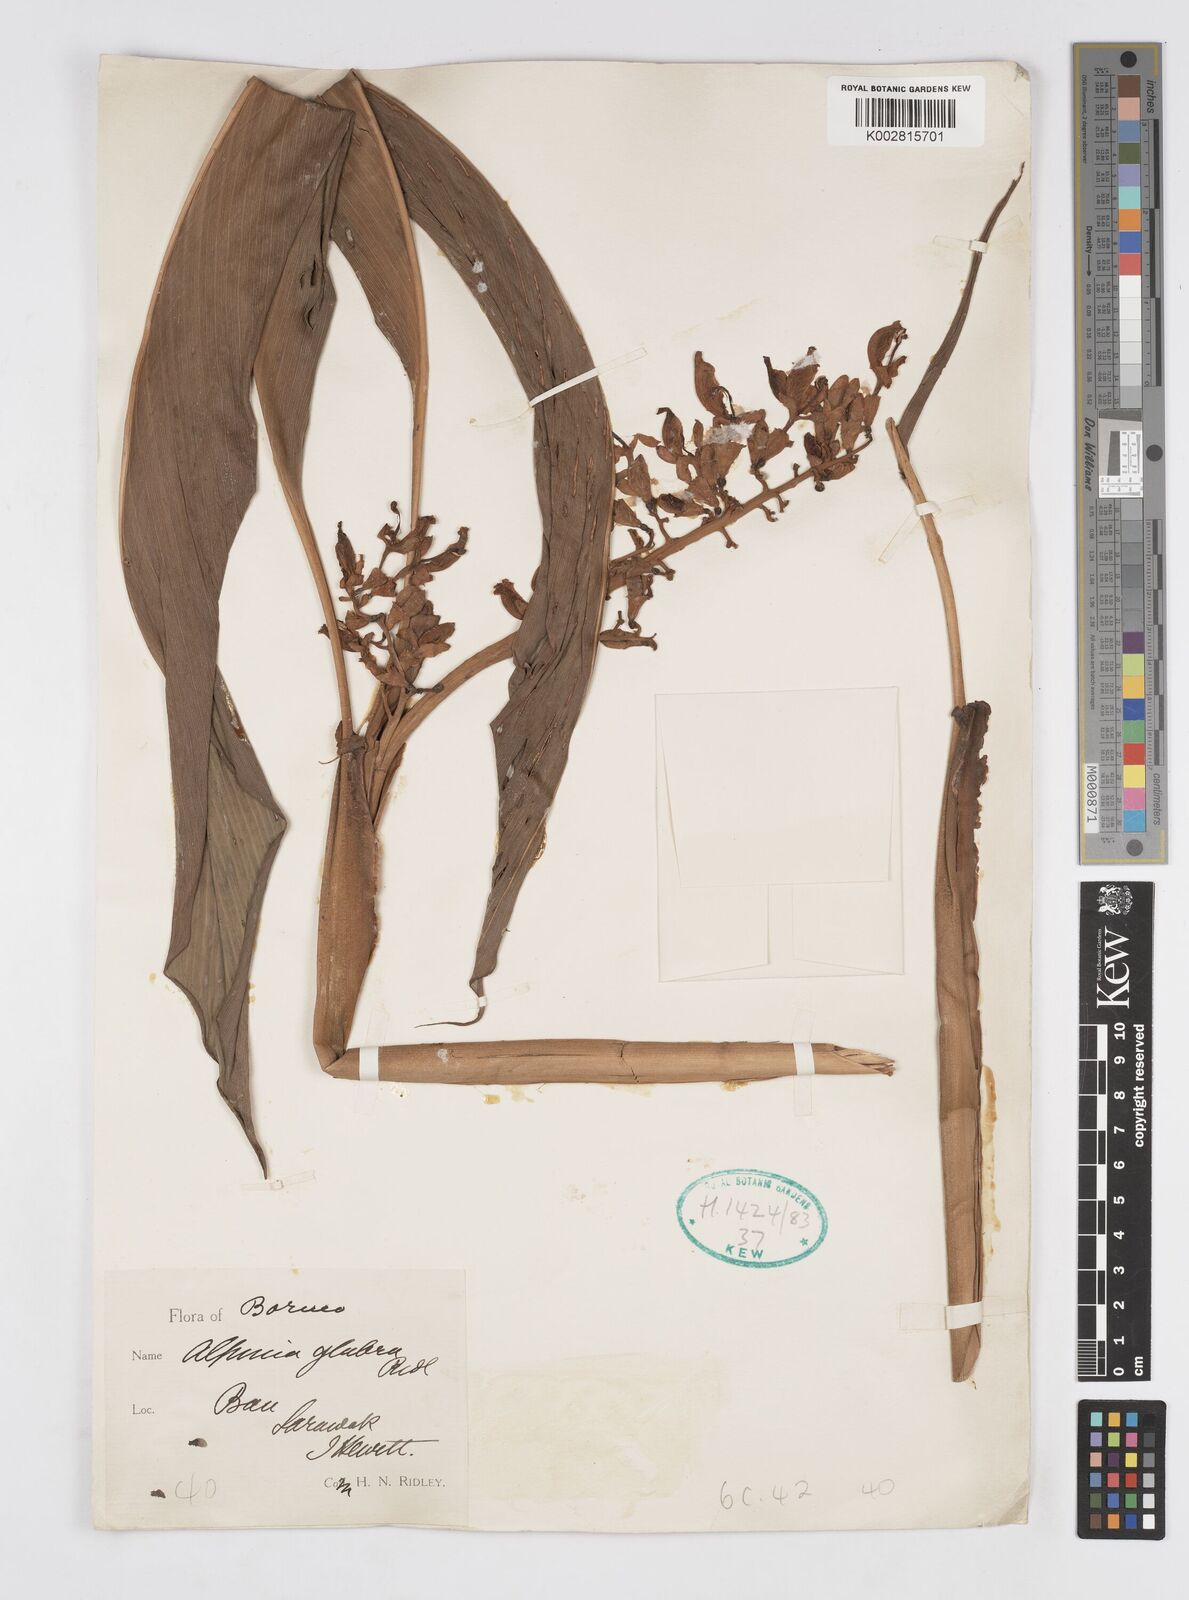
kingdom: Plantae
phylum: Tracheophyta
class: Liliopsida
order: Zingiberales
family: Zingiberaceae
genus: Alpinia
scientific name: Alpinia glabra
